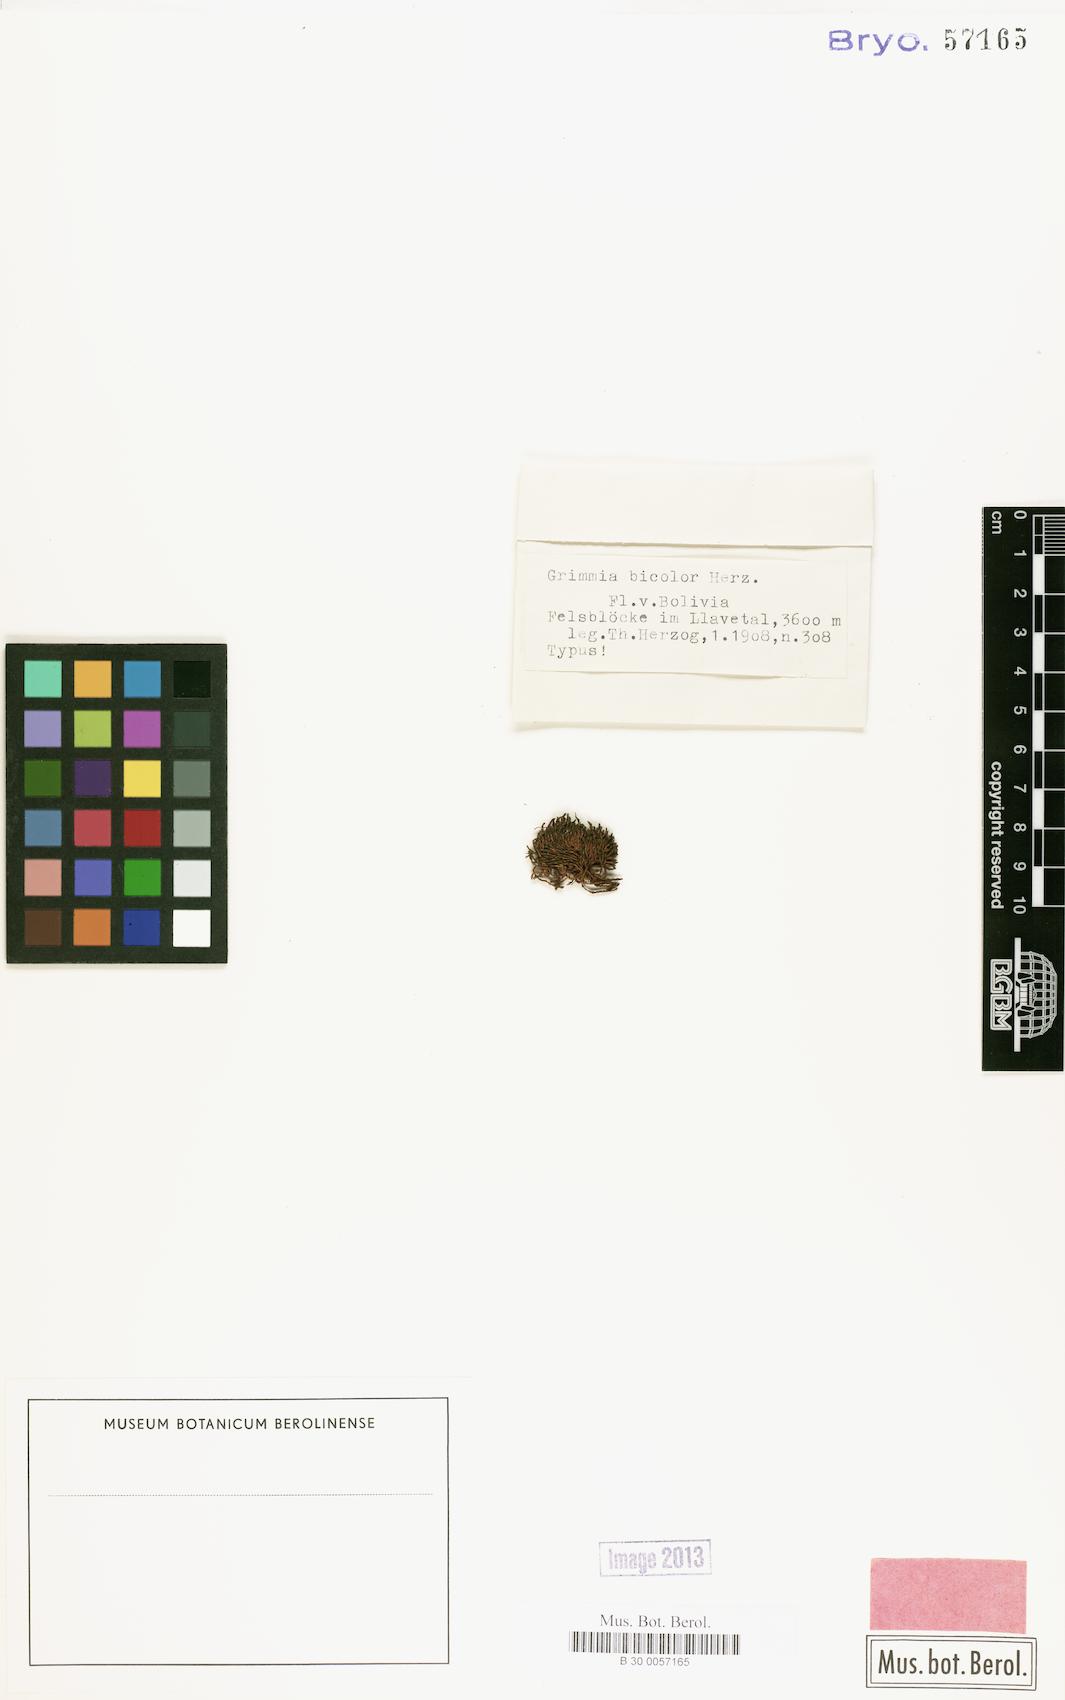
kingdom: Plantae
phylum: Bryophyta
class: Bryopsida
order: Grimmiales
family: Grimmiaceae
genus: Grimmia
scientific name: Grimmia bicolor
